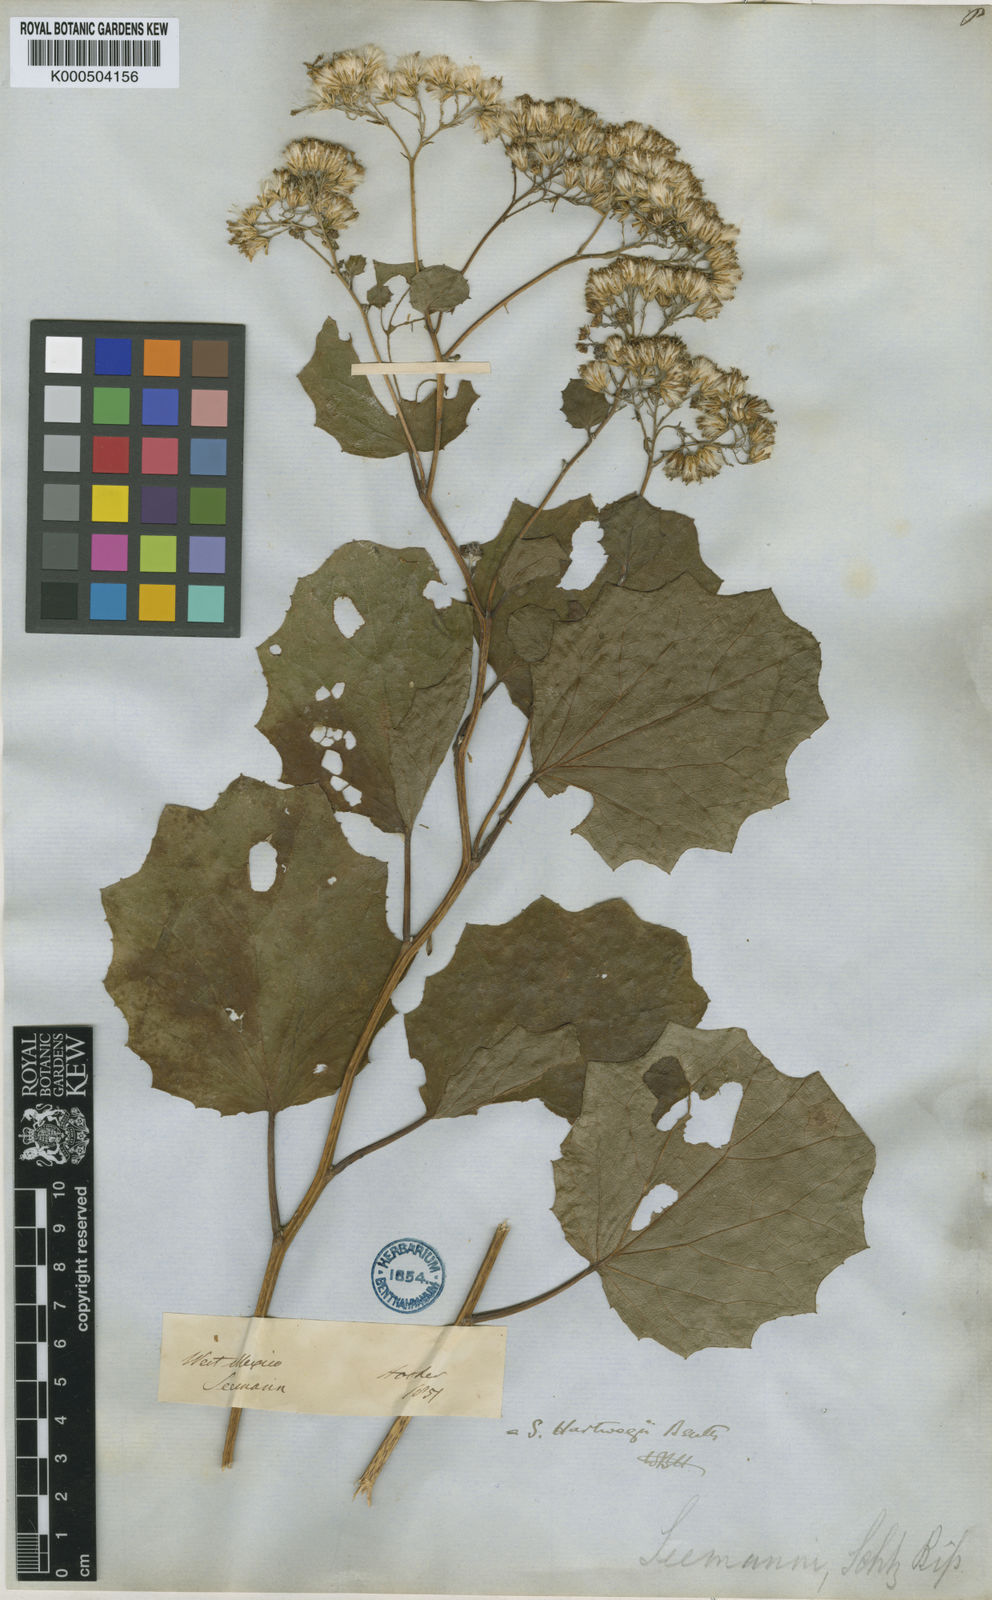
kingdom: Plantae
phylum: Tracheophyta
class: Magnoliopsida
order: Asterales
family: Asteraceae
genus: Roldana
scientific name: Roldana hartwegii
